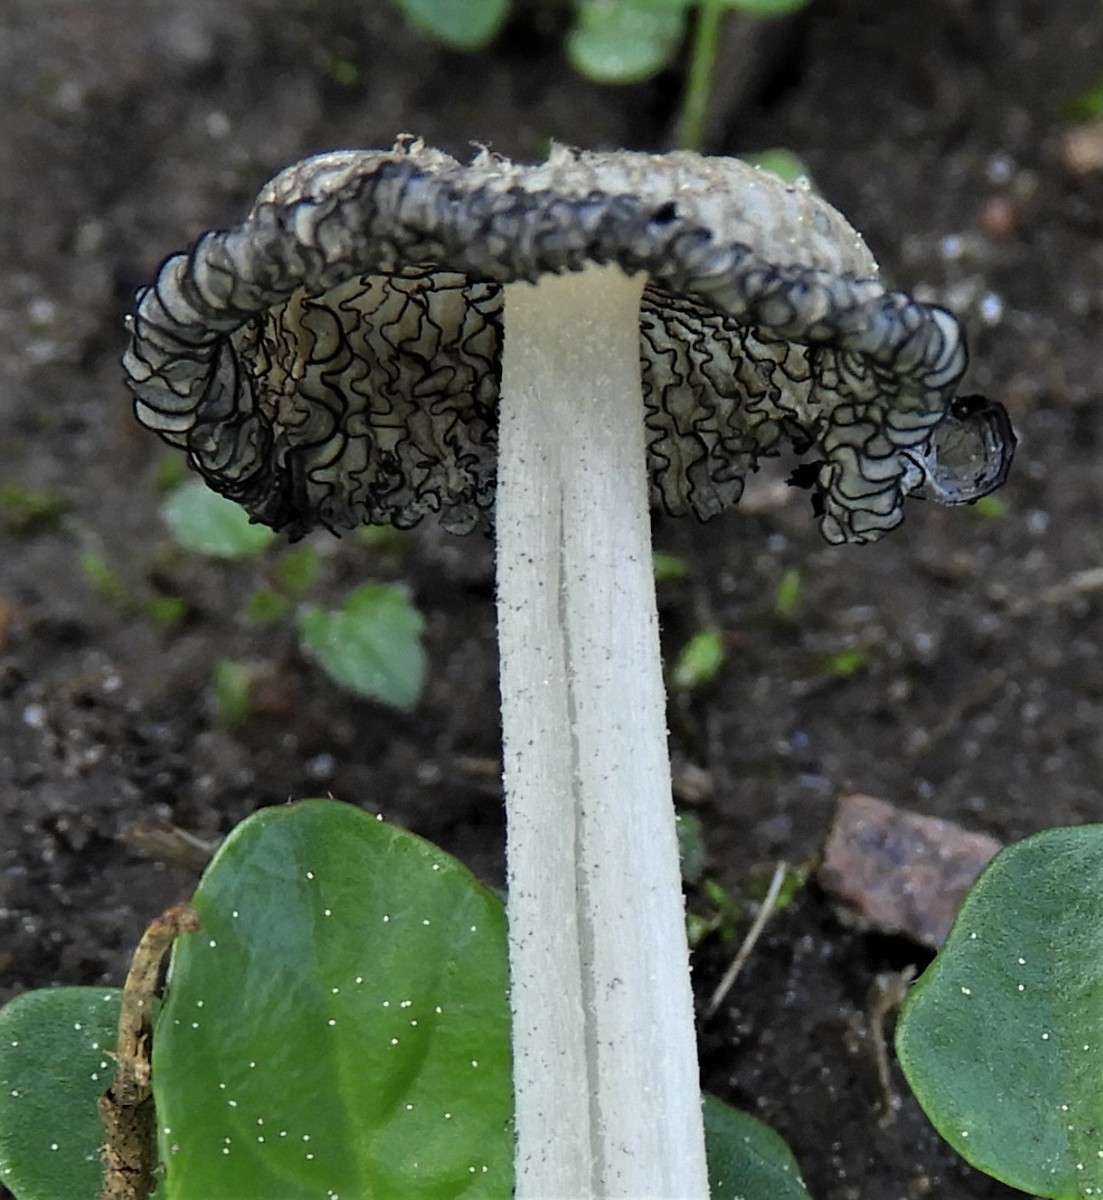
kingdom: Fungi
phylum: Basidiomycota
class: Agaricomycetes
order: Agaricales
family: Psathyrellaceae
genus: Coprinopsis
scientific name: Coprinopsis lagopus
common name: dunstokket blækhat
